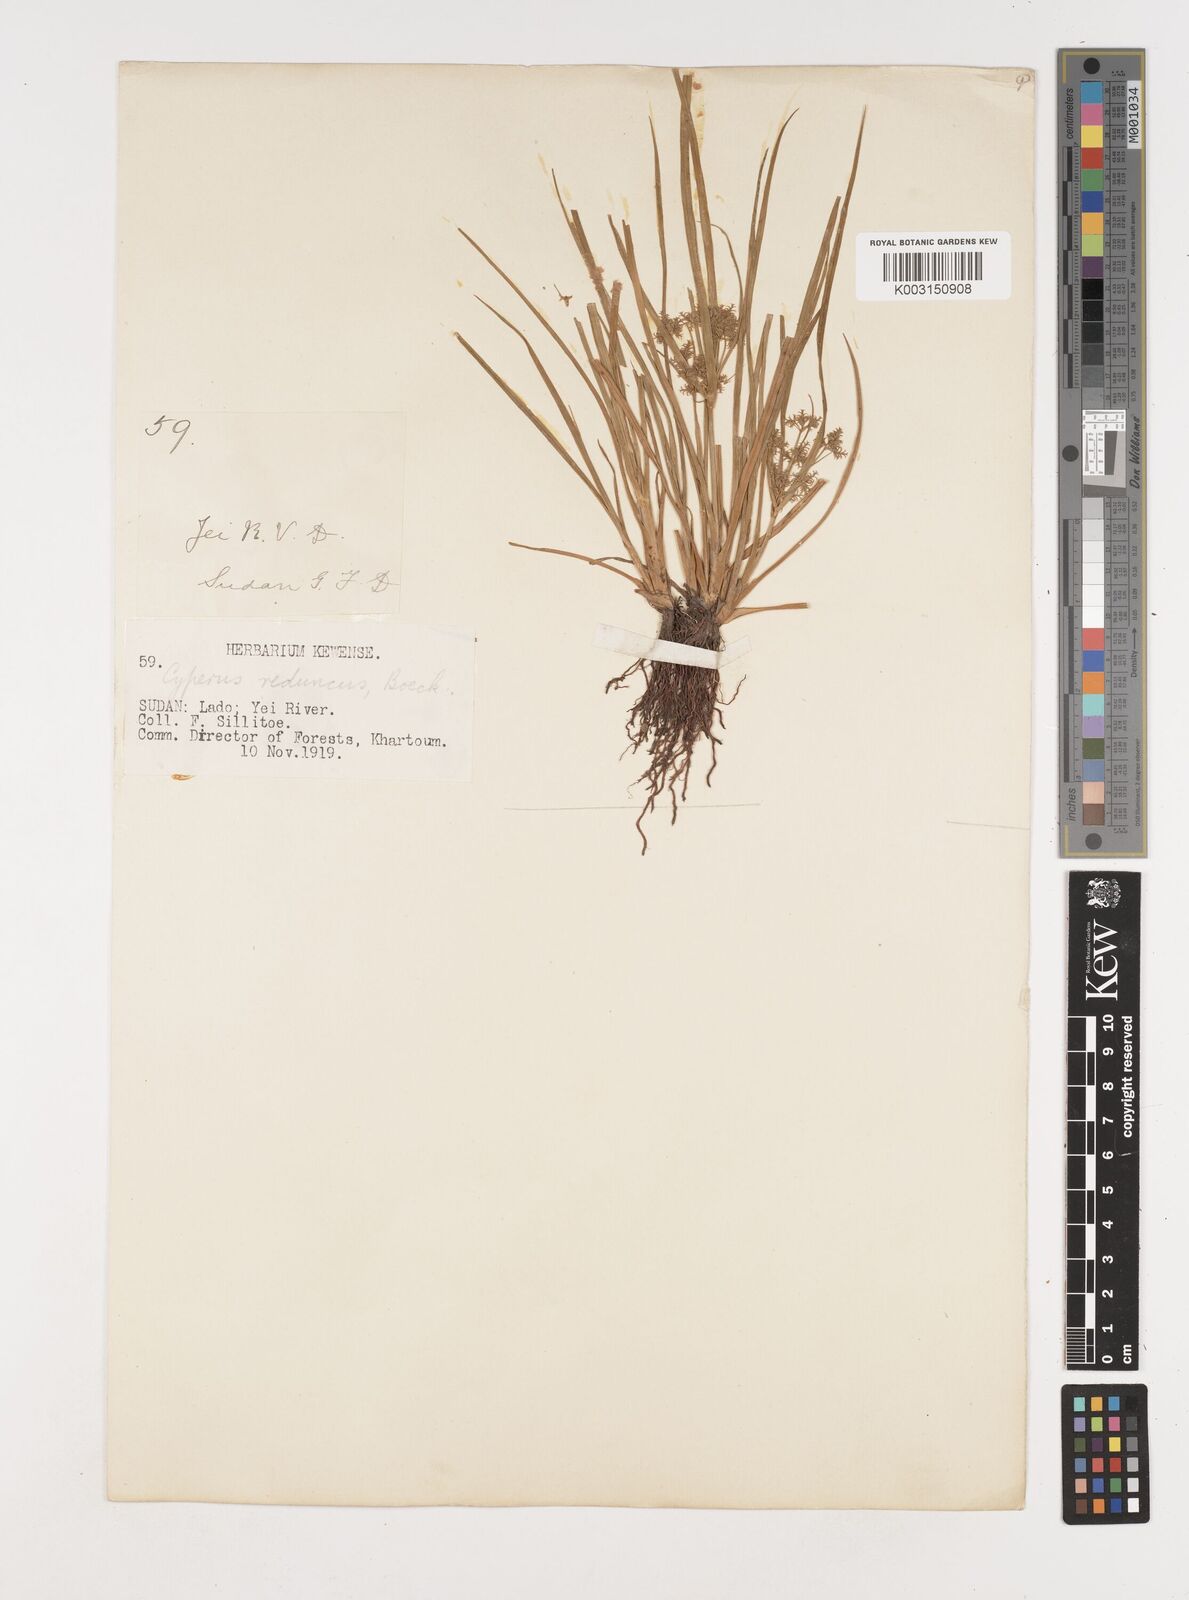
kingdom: Plantae
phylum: Tracheophyta
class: Liliopsida
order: Poales
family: Cyperaceae
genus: Cyperus
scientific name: Cyperus reduncus
